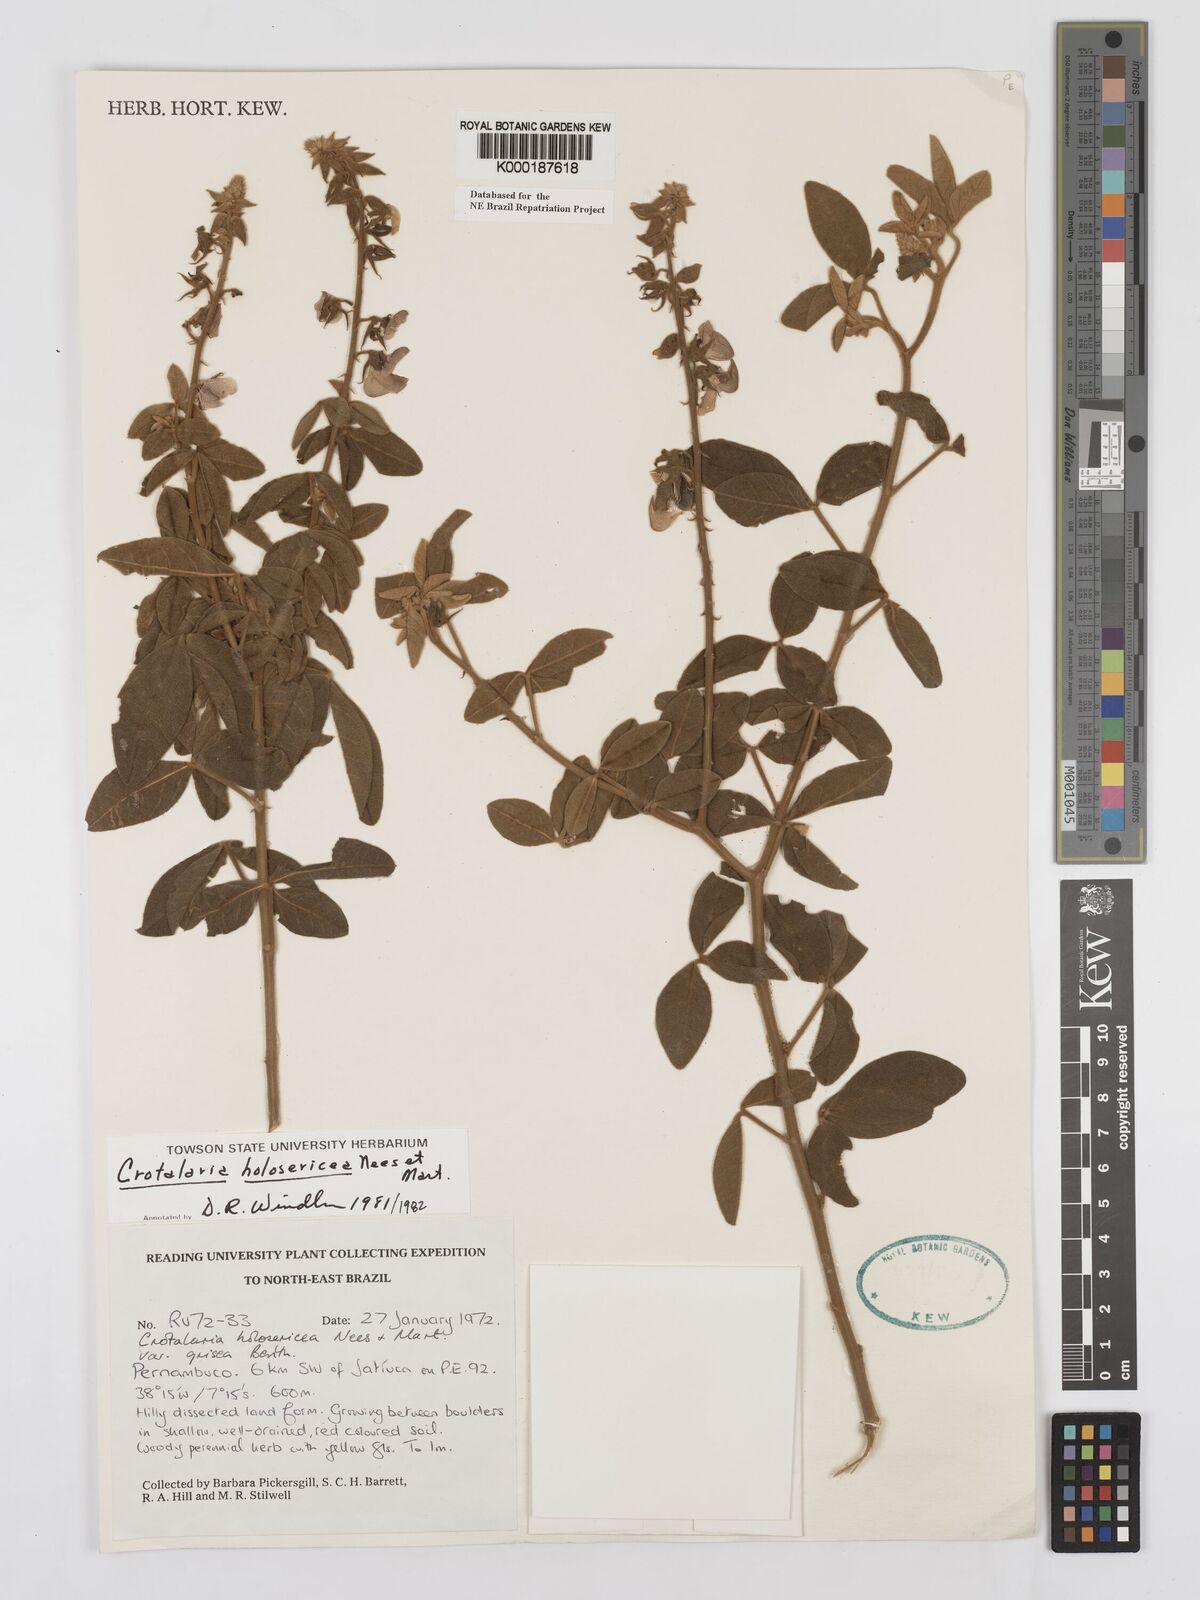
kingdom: Plantae
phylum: Tracheophyta
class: Magnoliopsida
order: Fabales
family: Fabaceae
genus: Crotalaria
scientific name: Crotalaria holosericea
